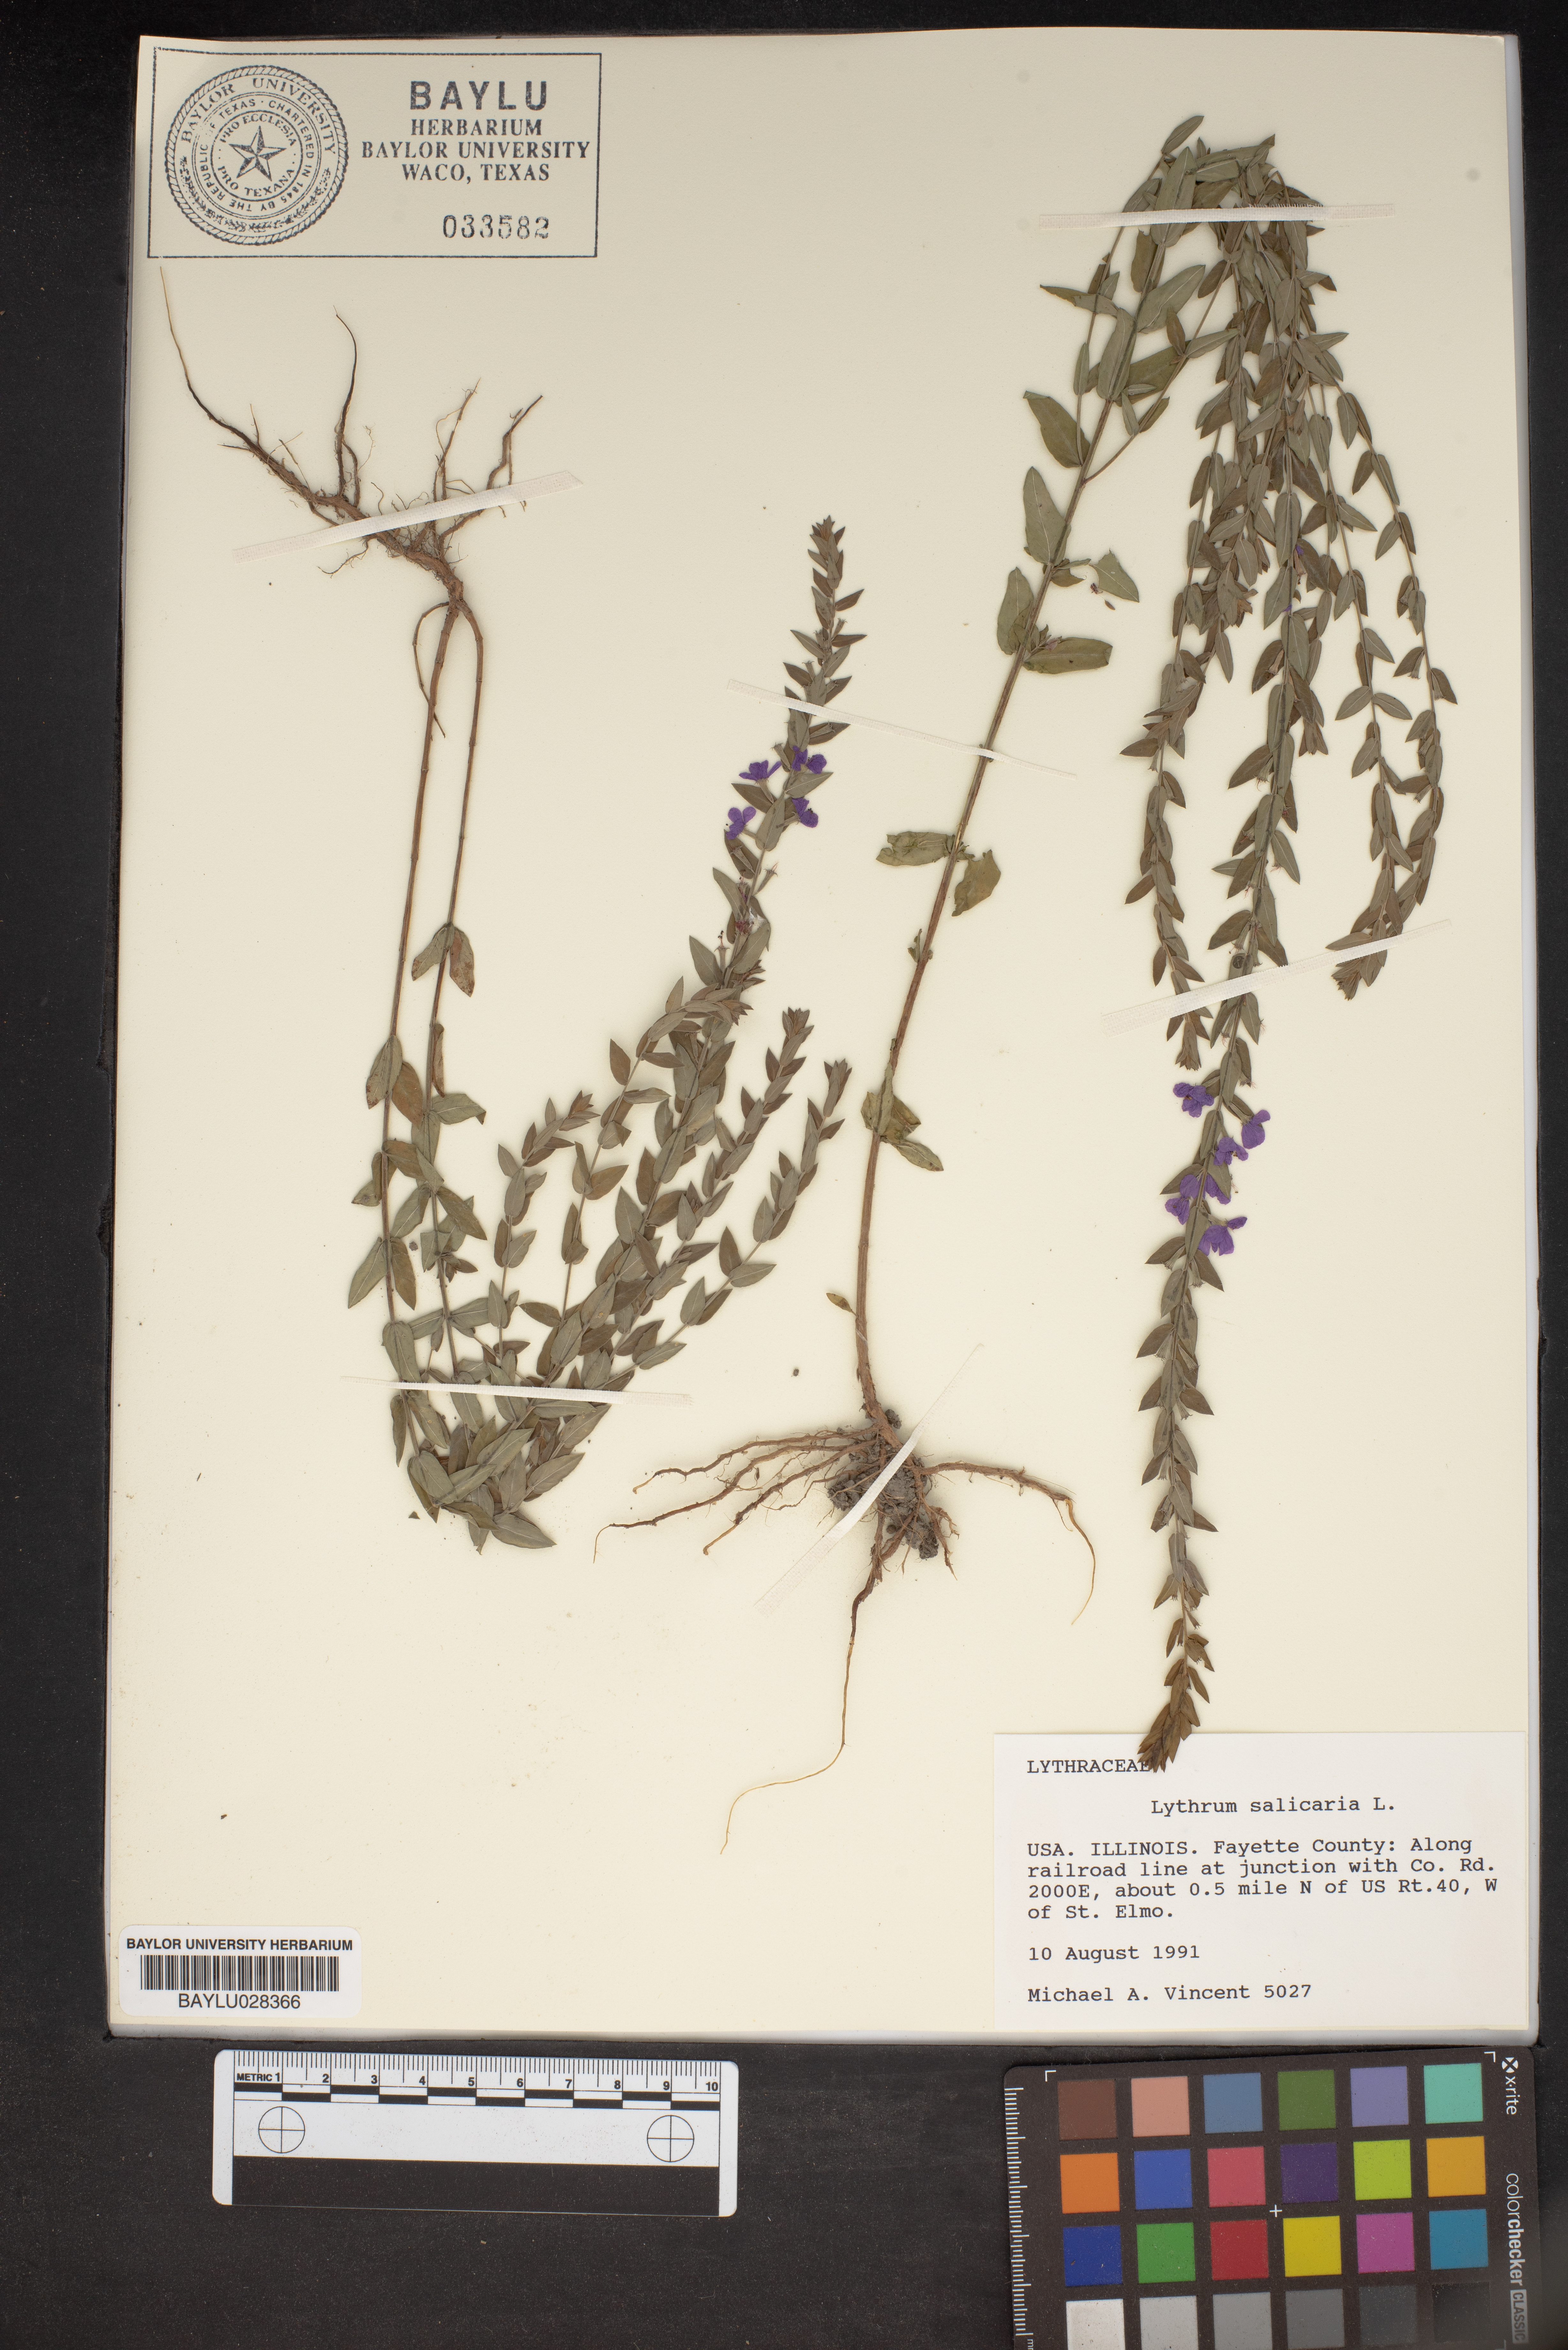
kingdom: Plantae
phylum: Tracheophyta
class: Magnoliopsida
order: Myrtales
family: Lythraceae
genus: Lythrum
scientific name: Lythrum salicaria
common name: Purple loosestrife
